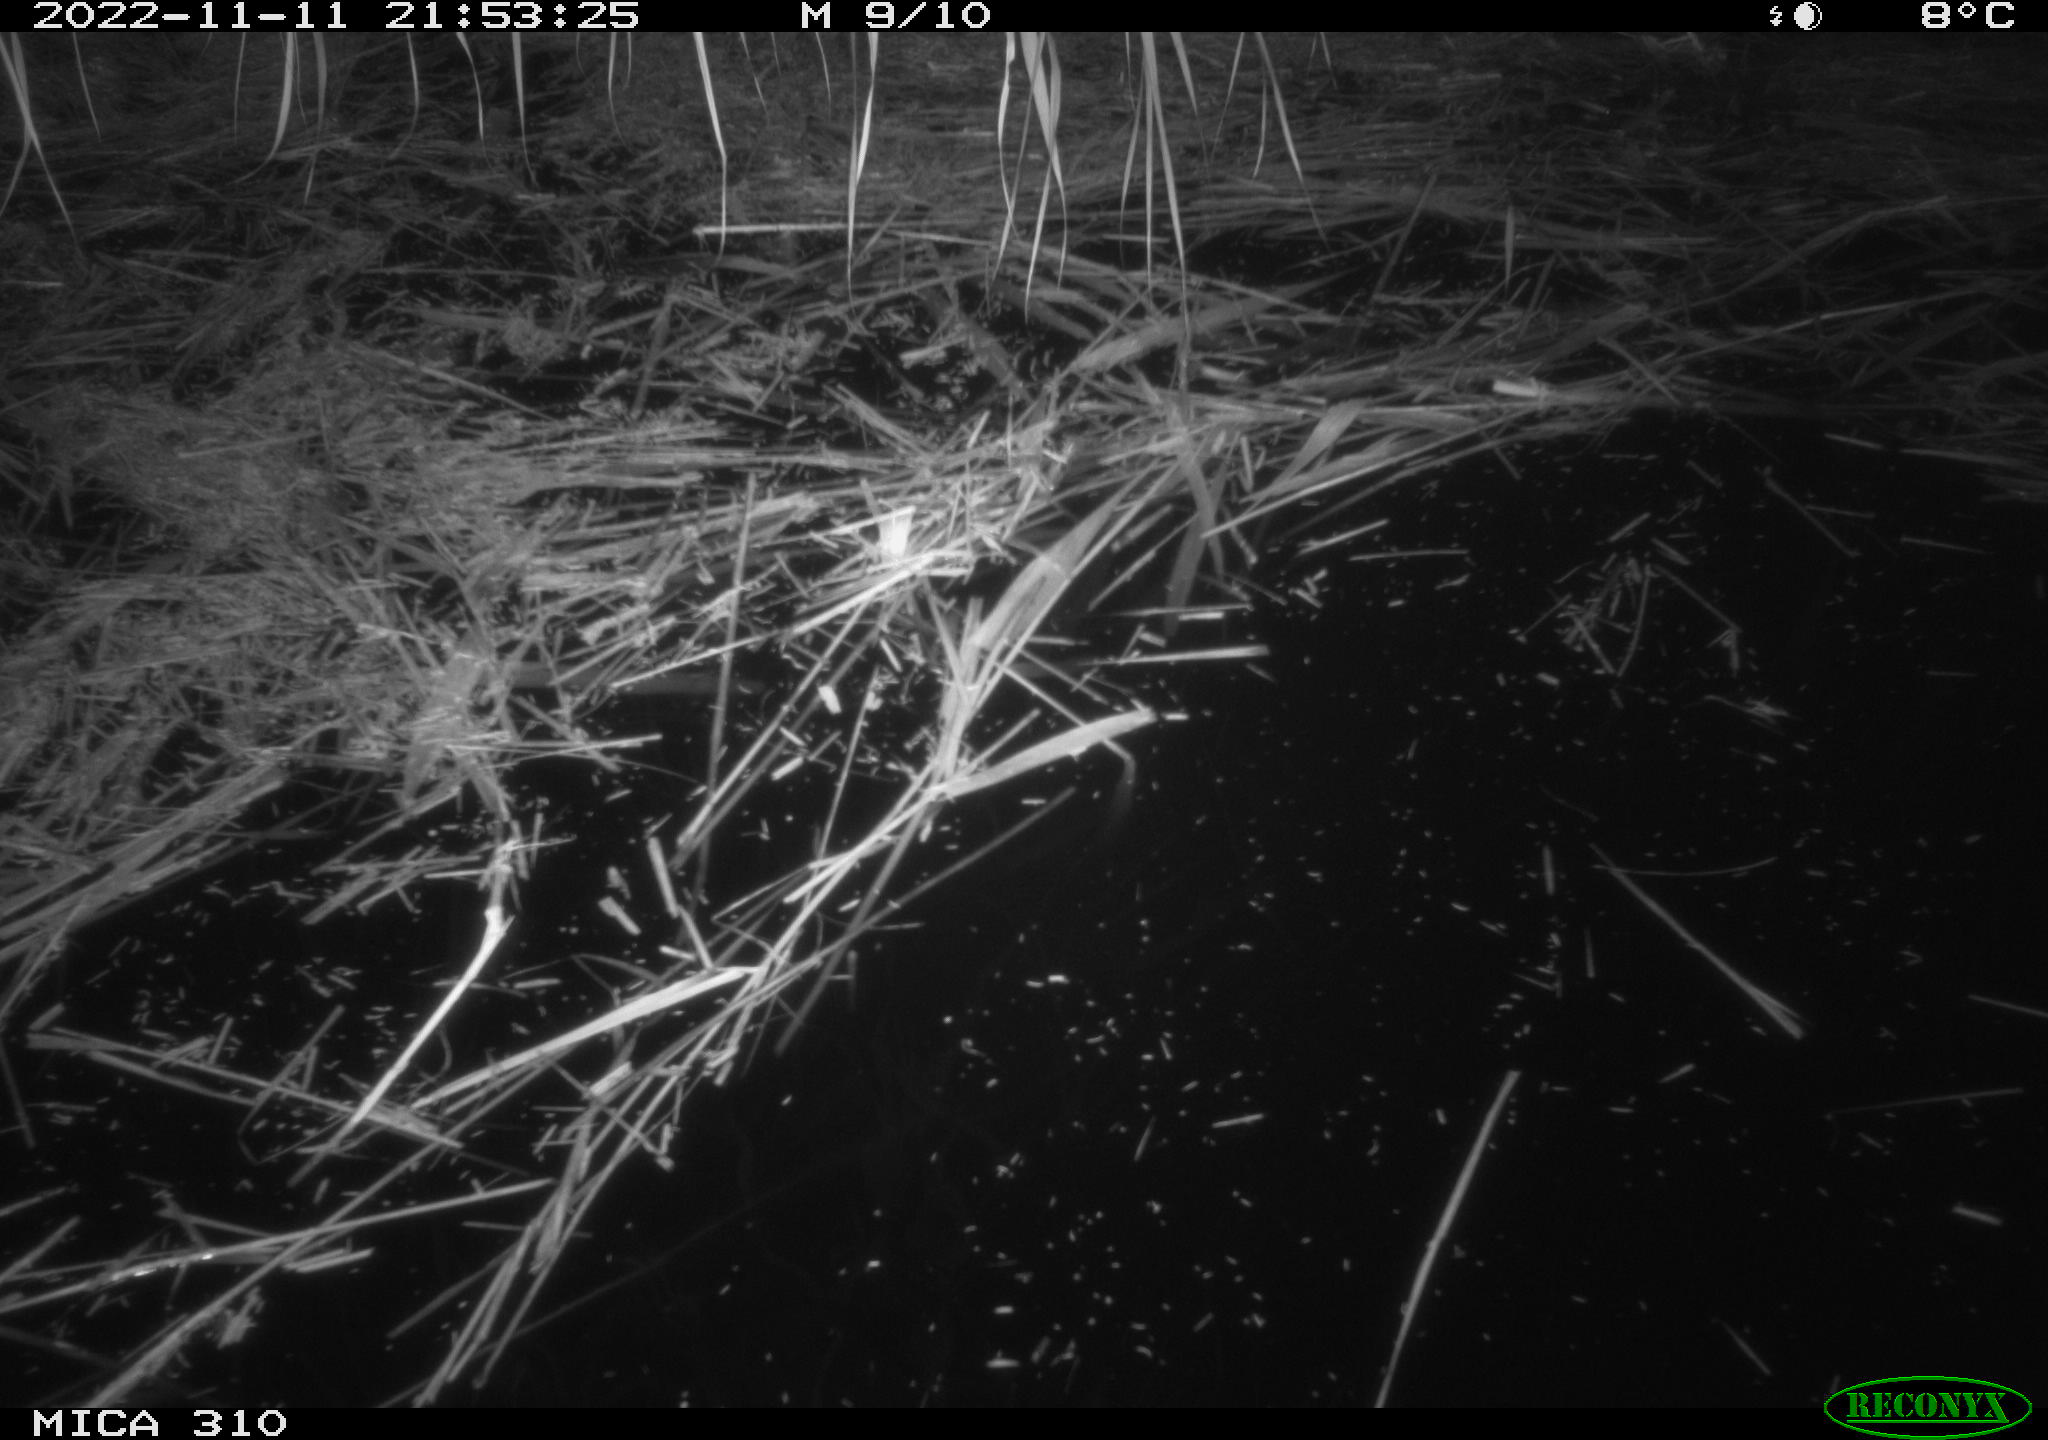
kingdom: Animalia
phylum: Chordata
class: Mammalia
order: Rodentia
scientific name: Rodentia
